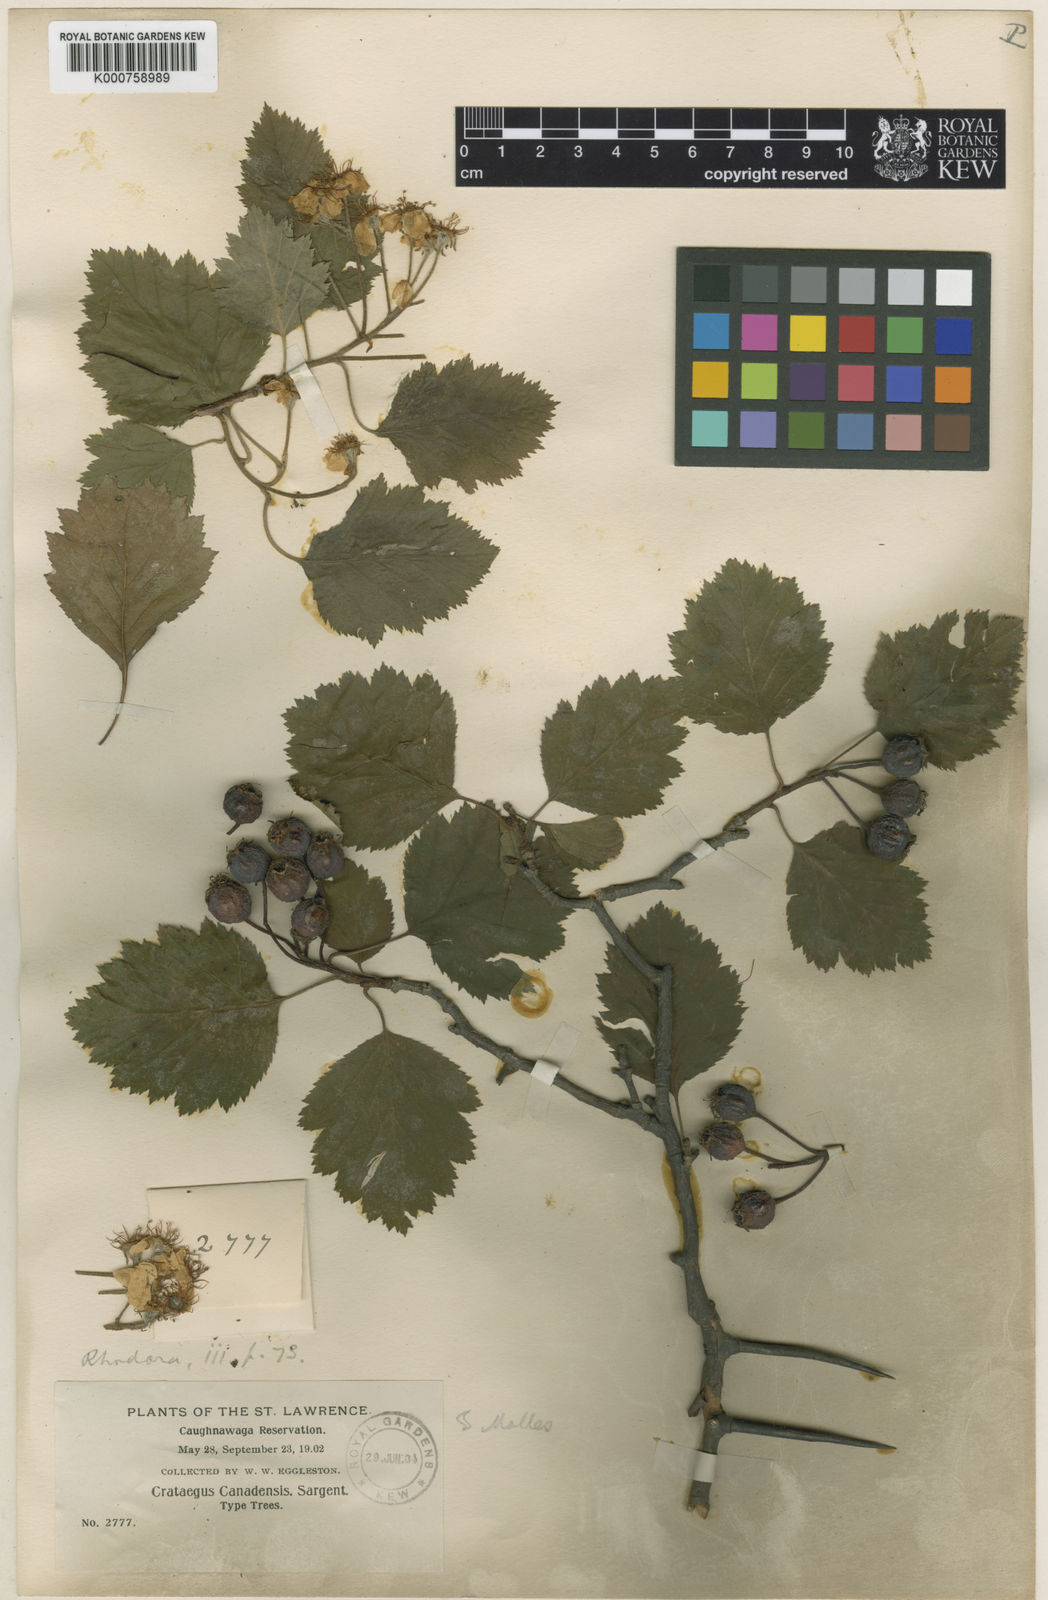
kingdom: Plantae
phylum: Tracheophyta
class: Magnoliopsida
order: Rosales
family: Rosaceae
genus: Crataegus
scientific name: Crataegus submollis
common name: Hairy cockspurthorn
